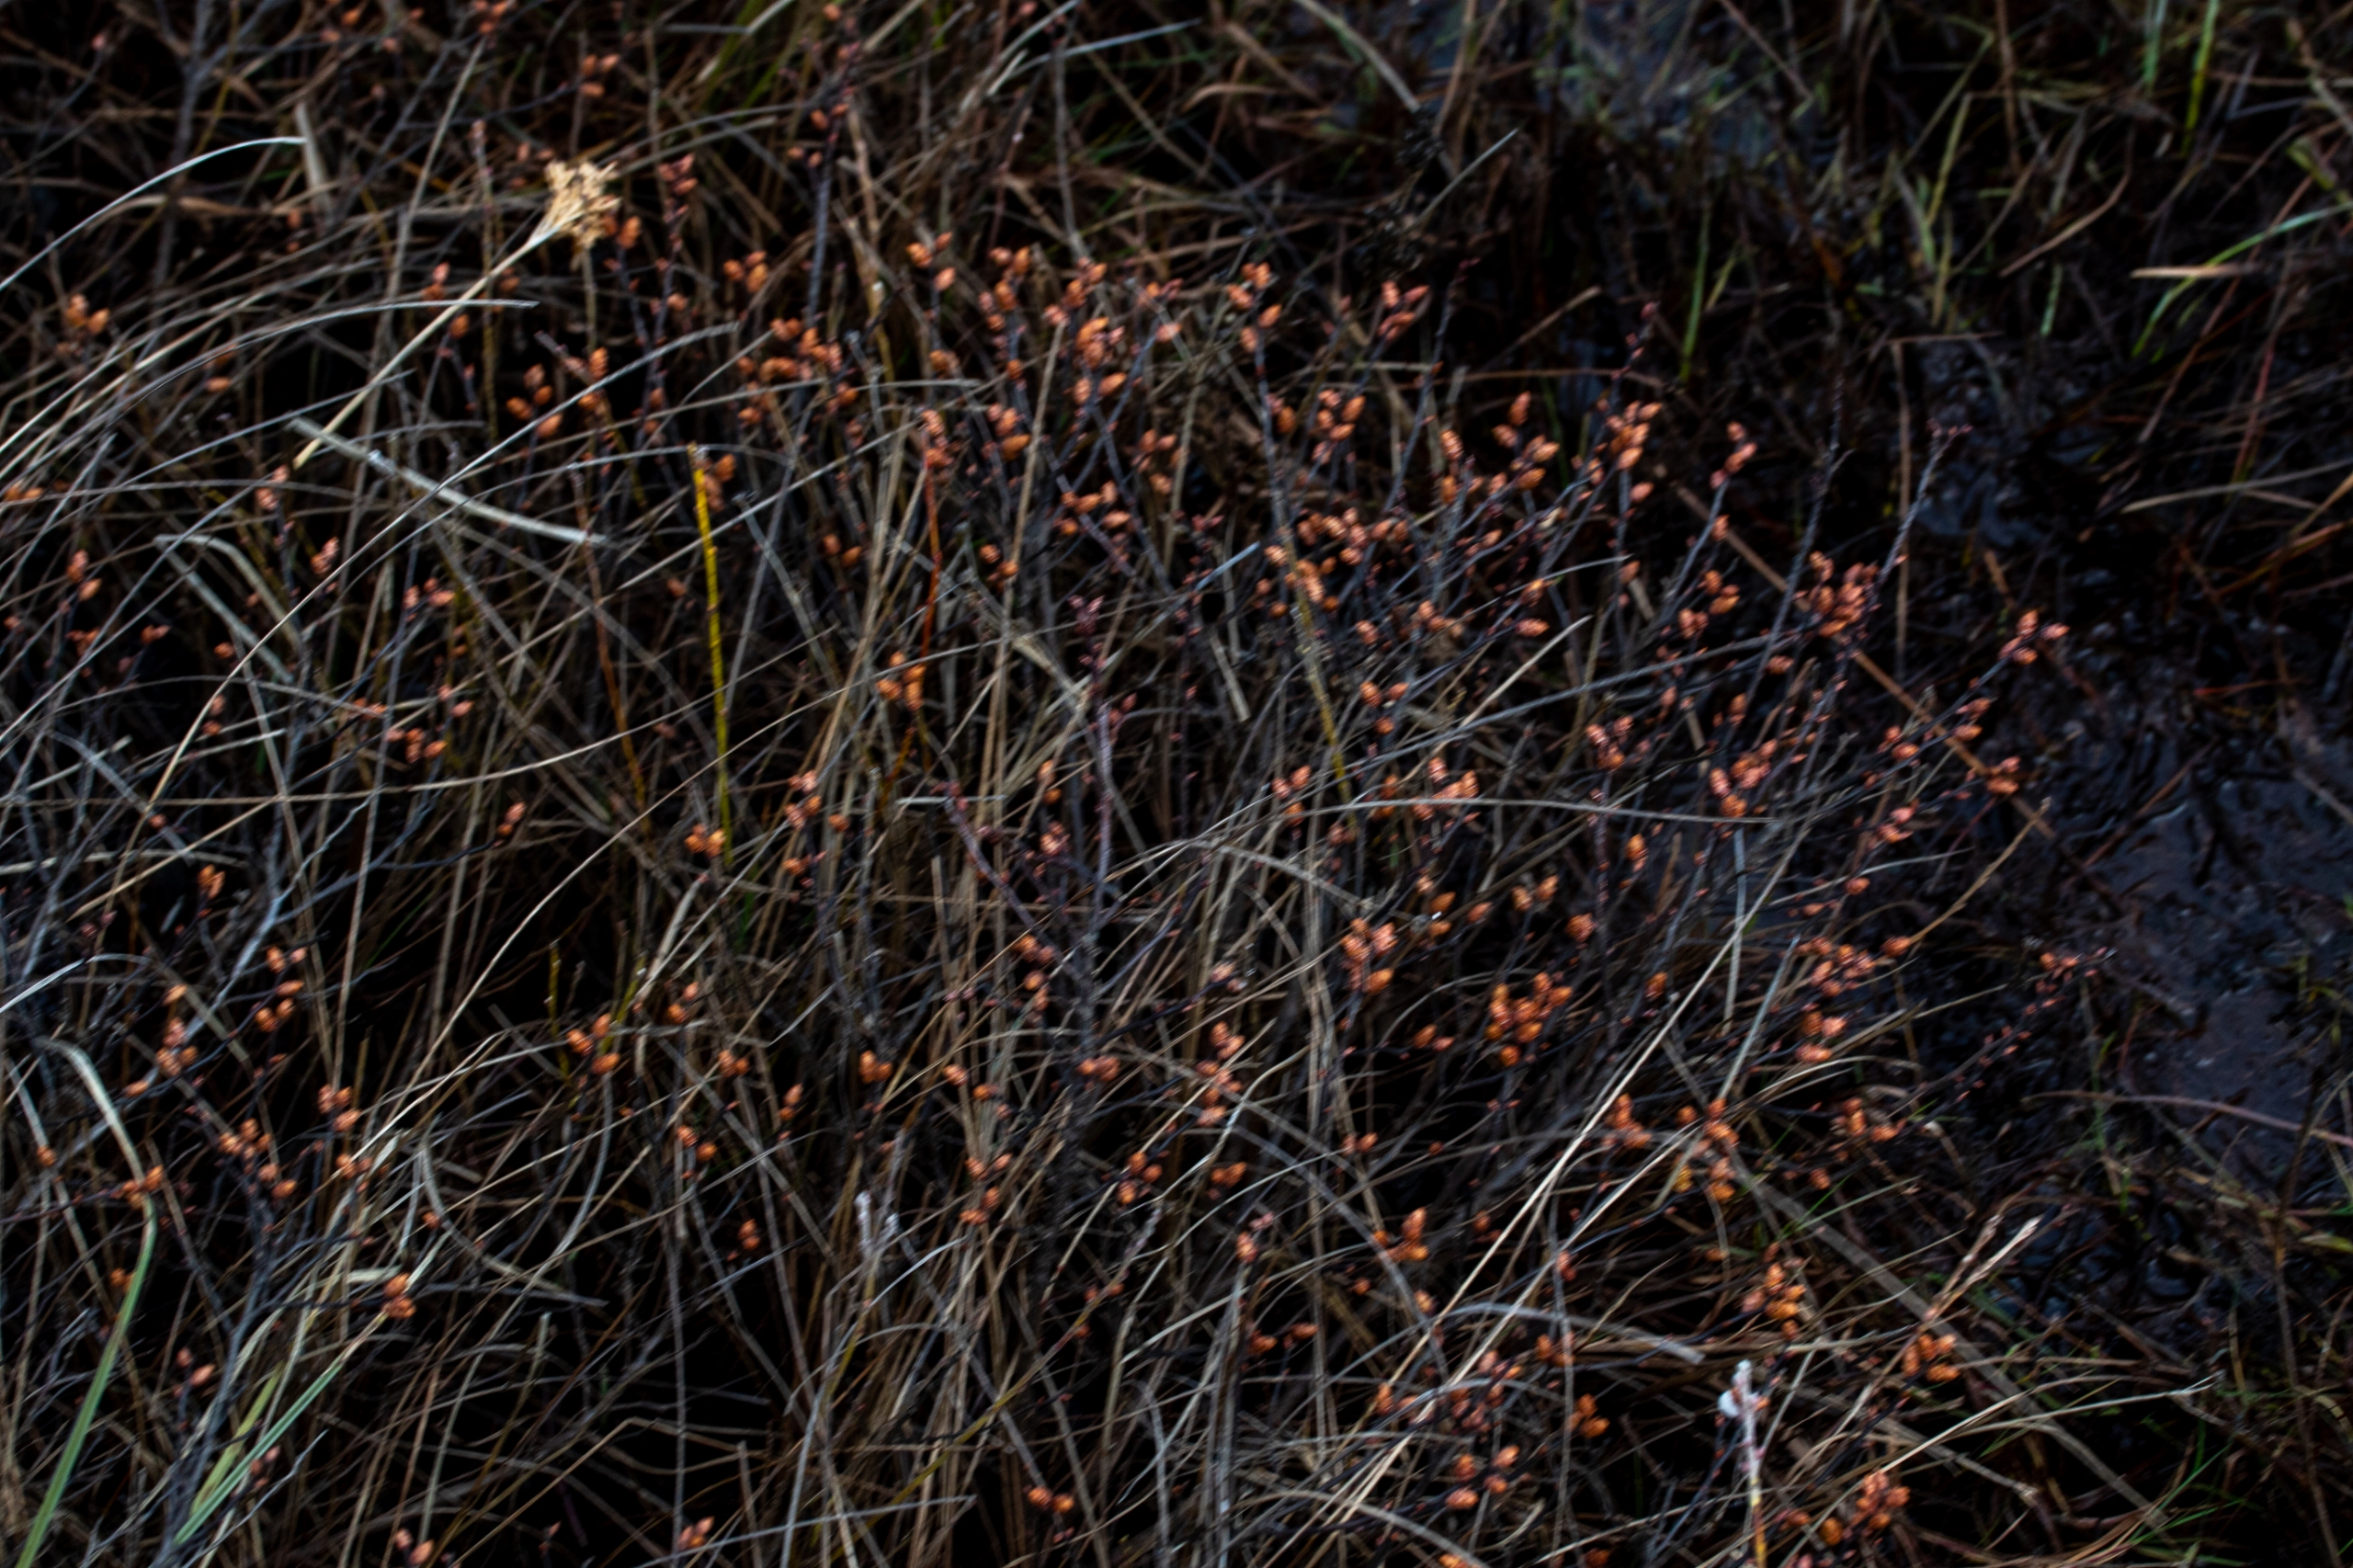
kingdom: Plantae
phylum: Tracheophyta
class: Magnoliopsida
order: Fagales
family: Myricaceae
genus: Myrica
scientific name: Myrica gale
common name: Pors
